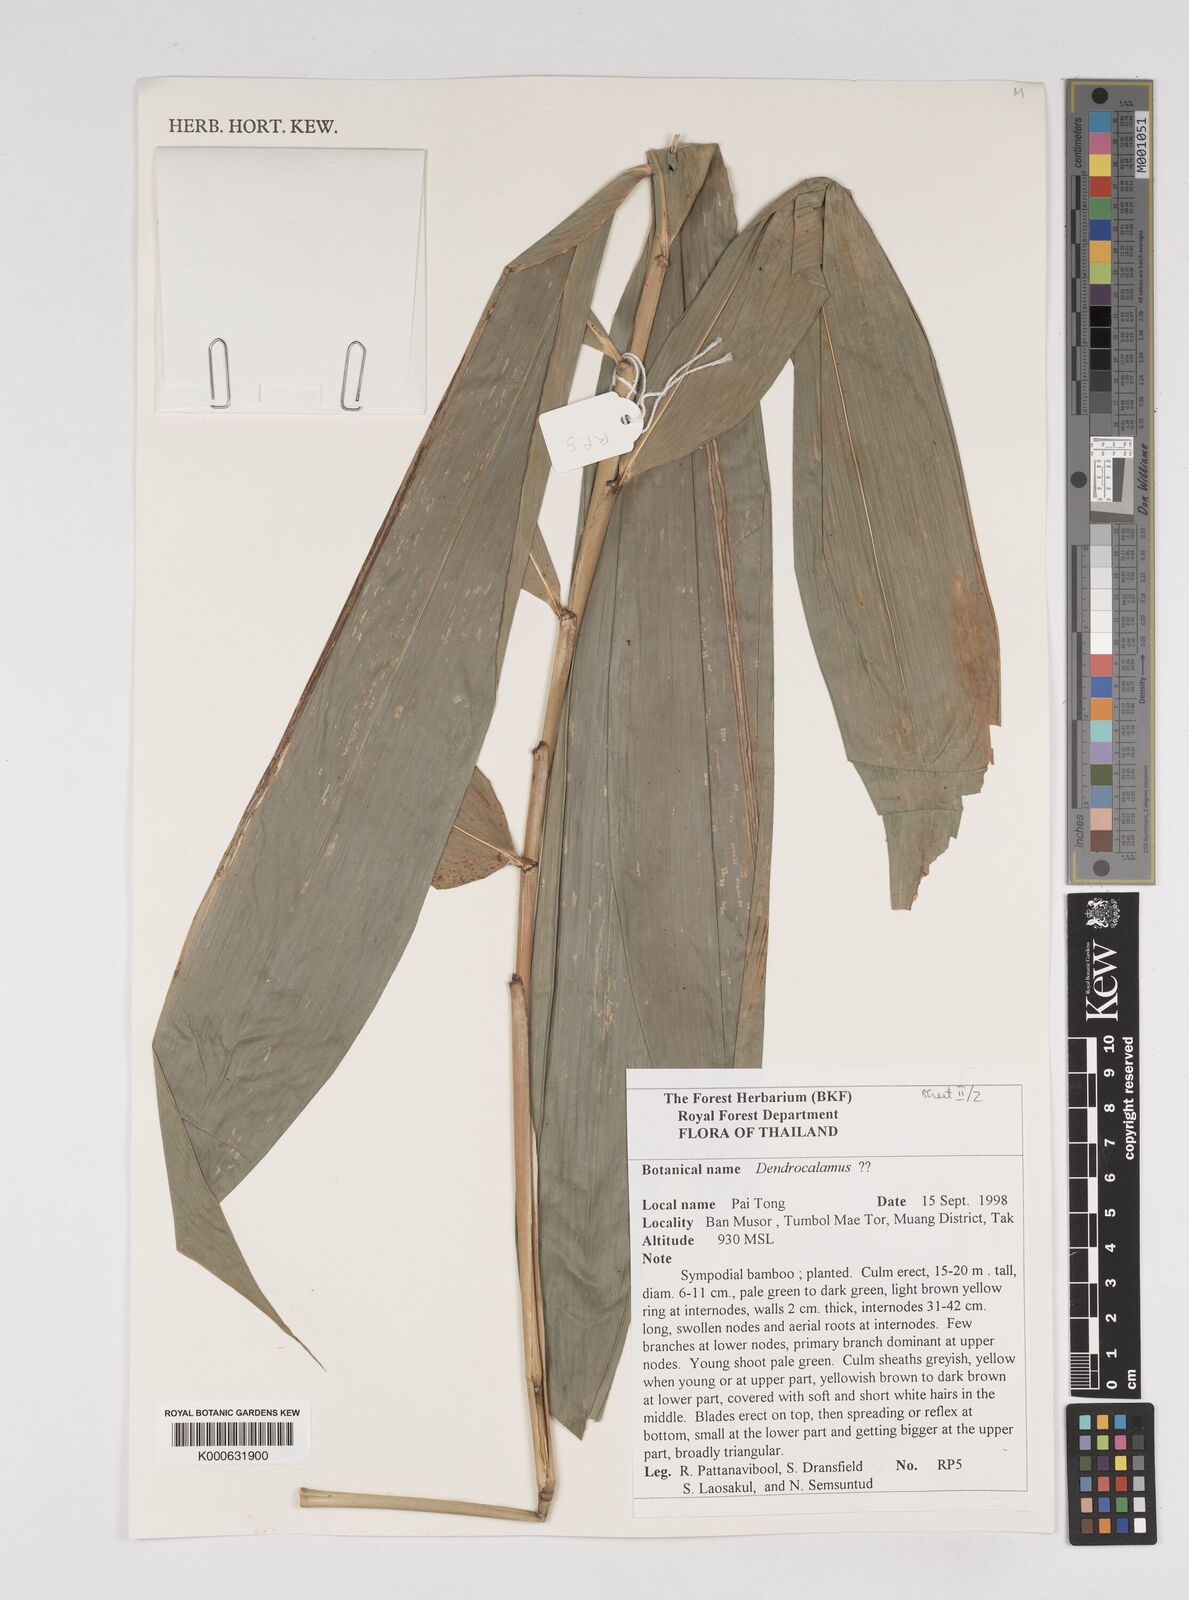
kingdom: Plantae
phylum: Tracheophyta
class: Liliopsida
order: Poales
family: Poaceae
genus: Dendrocalamus
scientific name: Dendrocalamus
